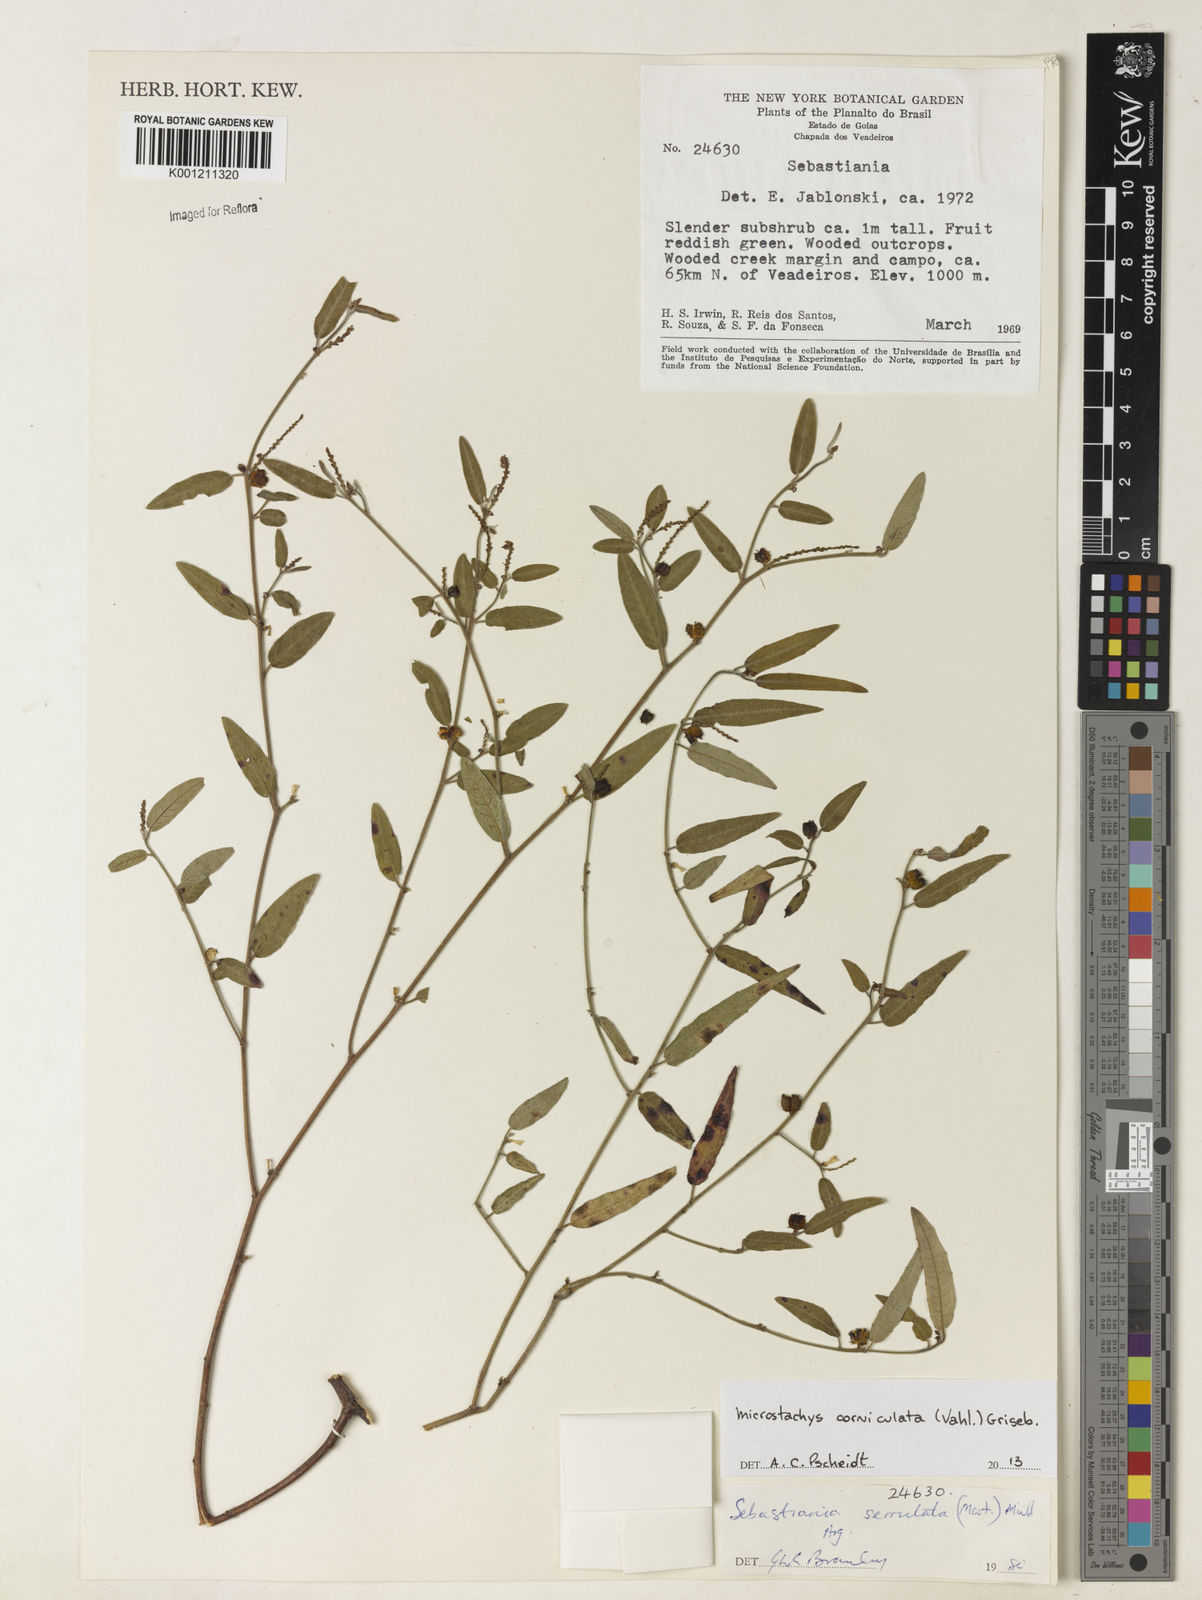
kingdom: Plantae
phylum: Tracheophyta
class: Magnoliopsida
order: Malpighiales
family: Euphorbiaceae
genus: Microstachys
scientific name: Microstachys corniculata
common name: Hato tejas
